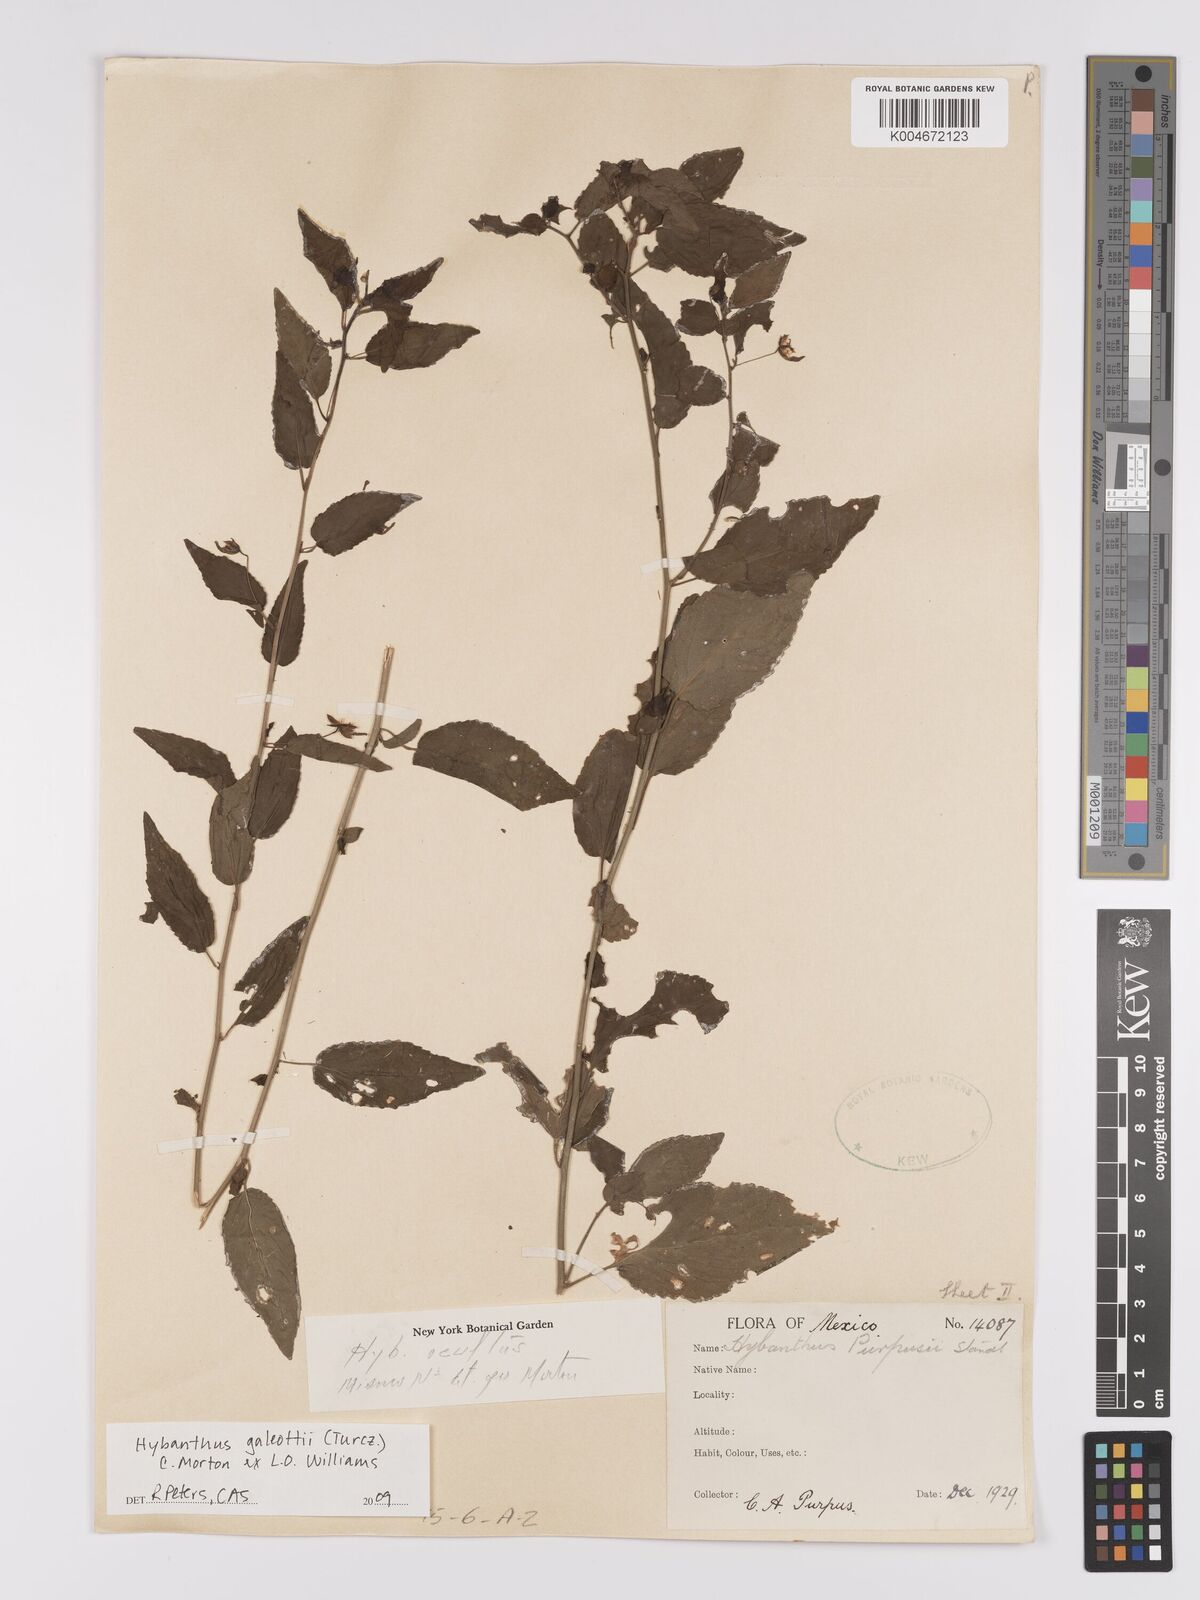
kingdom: Plantae
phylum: Tracheophyta
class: Magnoliopsida
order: Malpighiales
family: Violaceae
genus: Hybanthus
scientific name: Hybanthus galeottii
